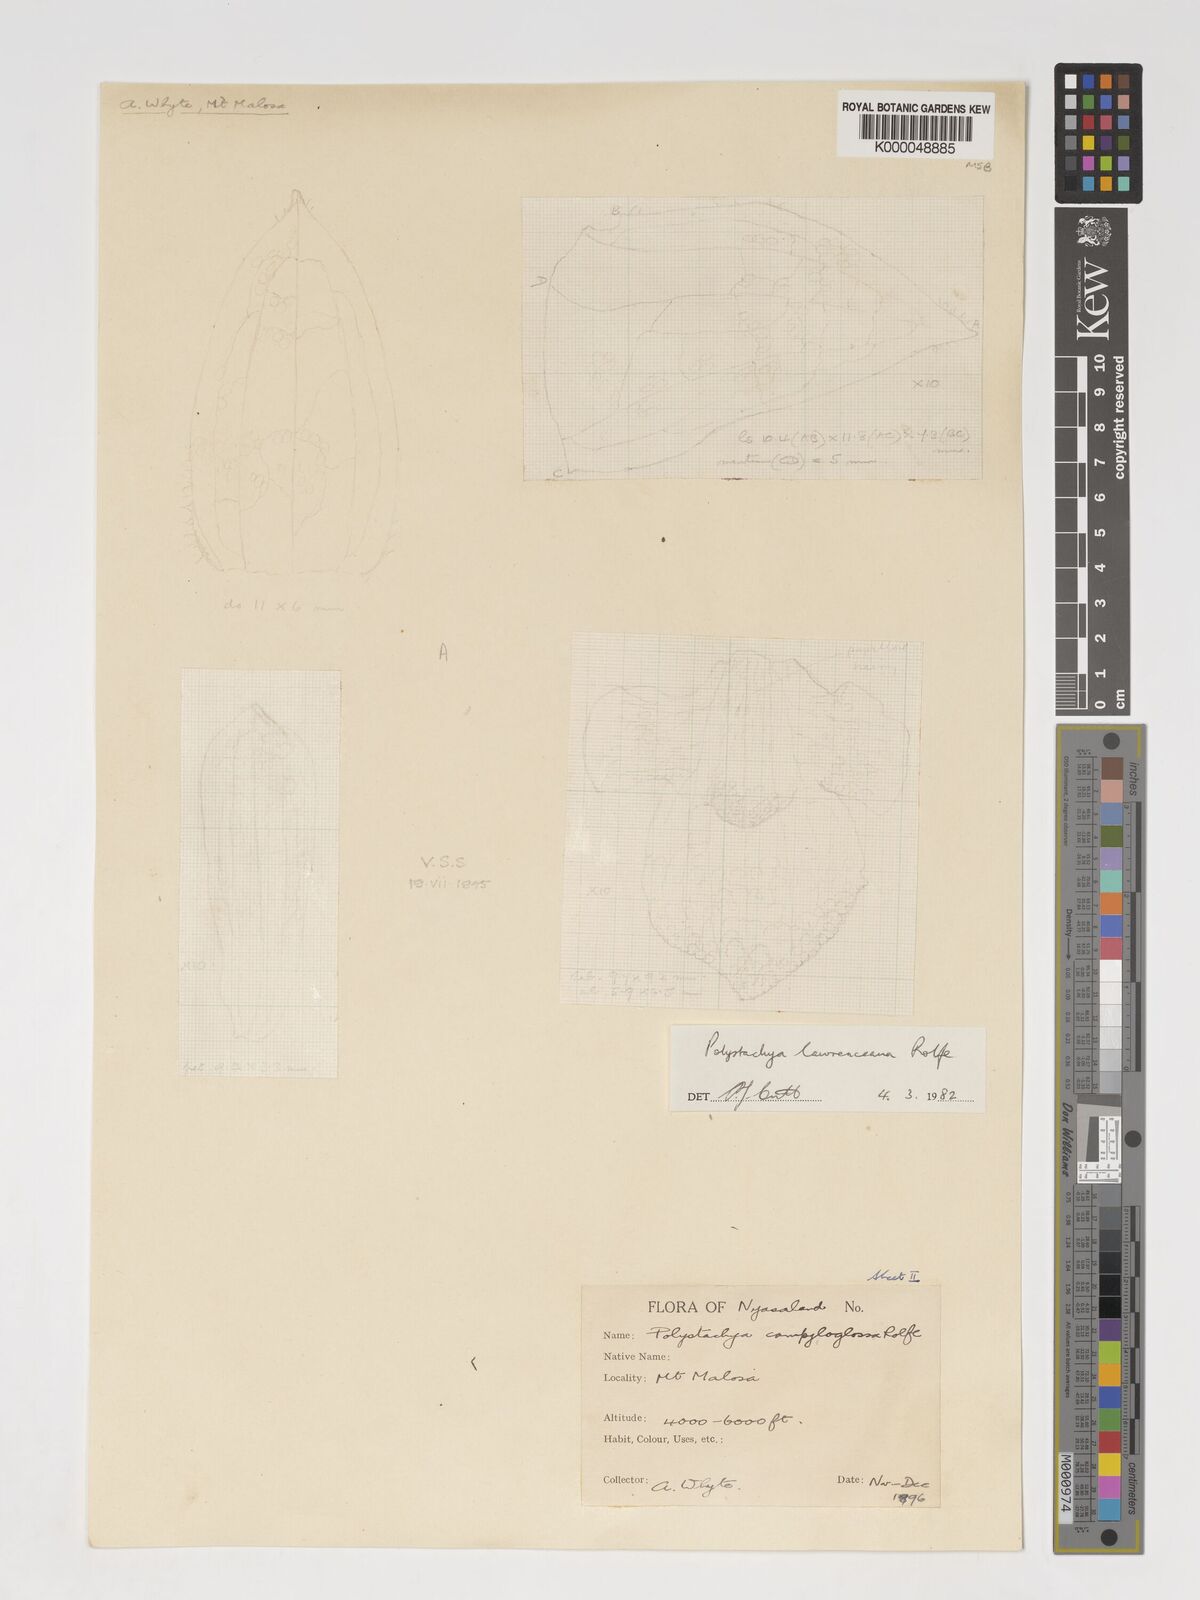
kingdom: Plantae
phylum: Tracheophyta
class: Liliopsida
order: Asparagales
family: Orchidaceae
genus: Polystachya
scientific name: Polystachya lawrenceana
